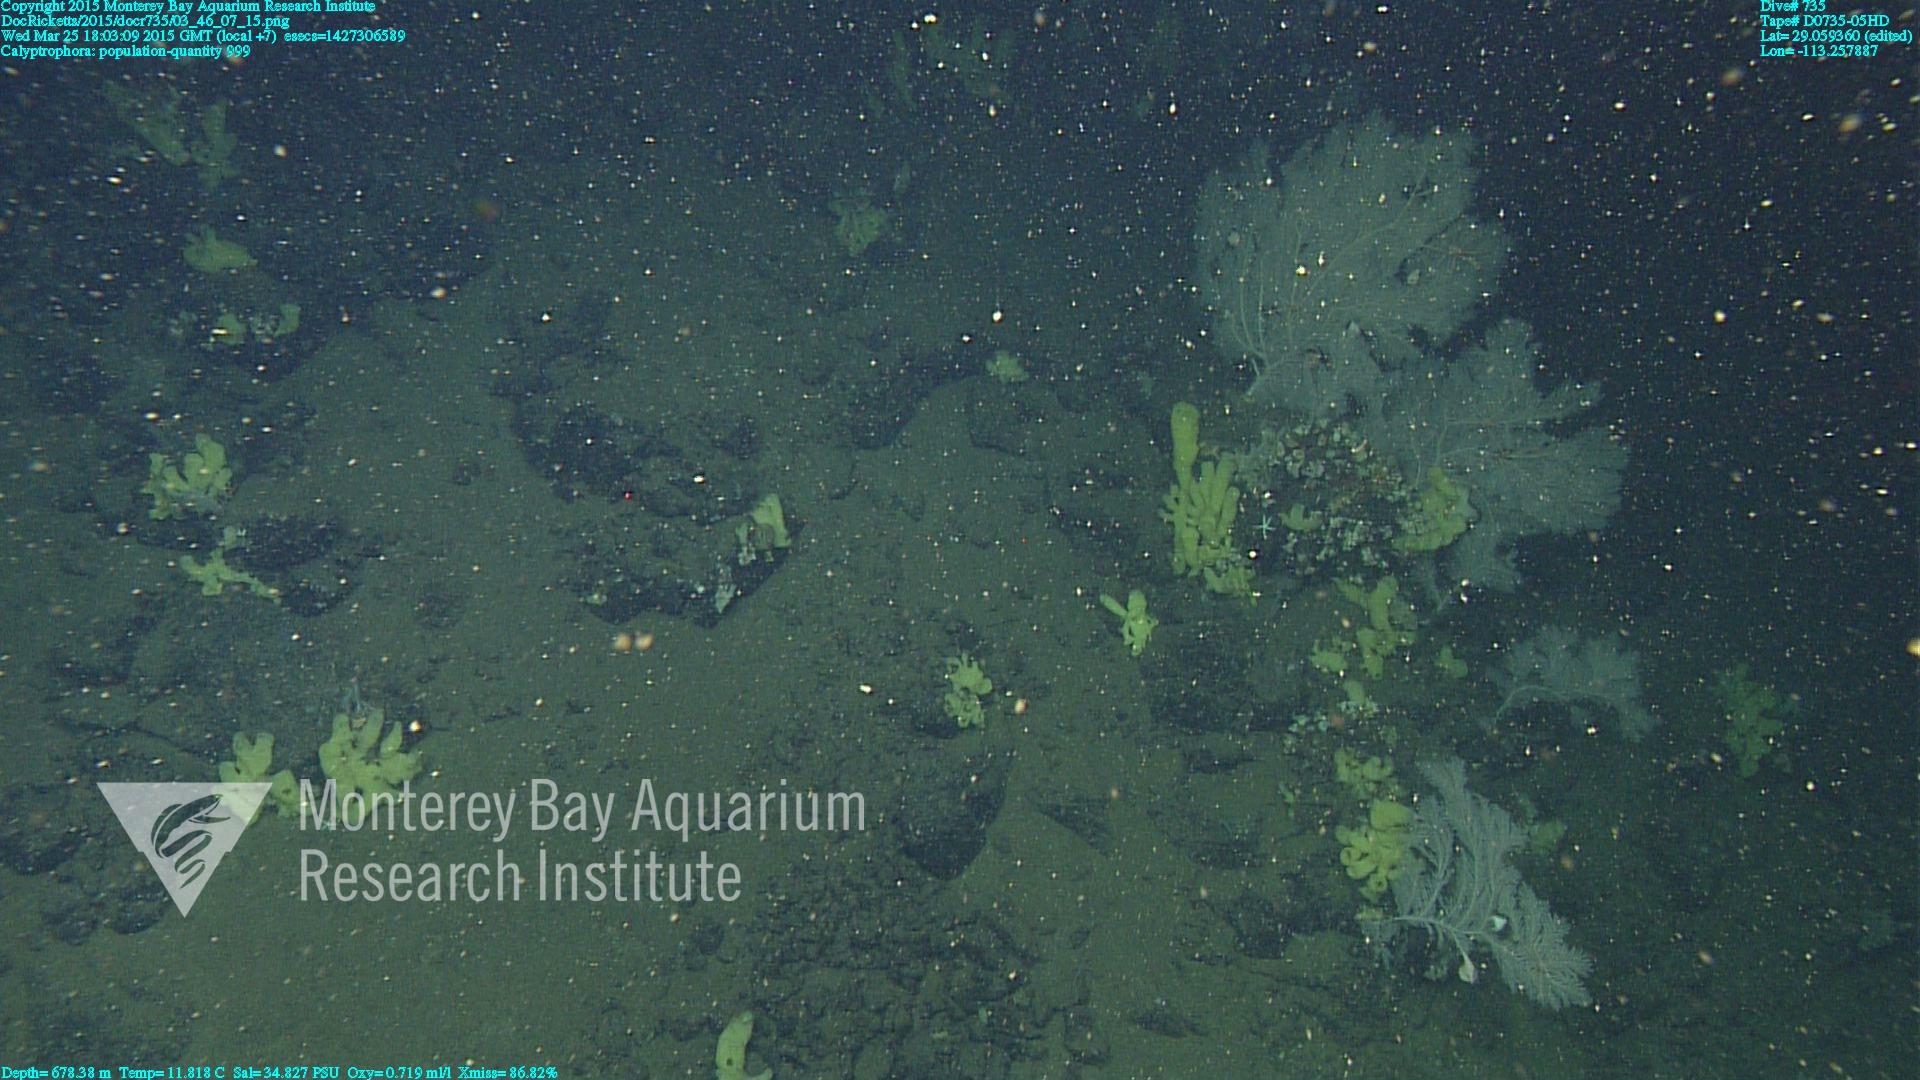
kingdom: Animalia
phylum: Cnidaria
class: Anthozoa
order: Scleralcyonacea
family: Primnoidae
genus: Calyptrophora
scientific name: Calyptrophora
